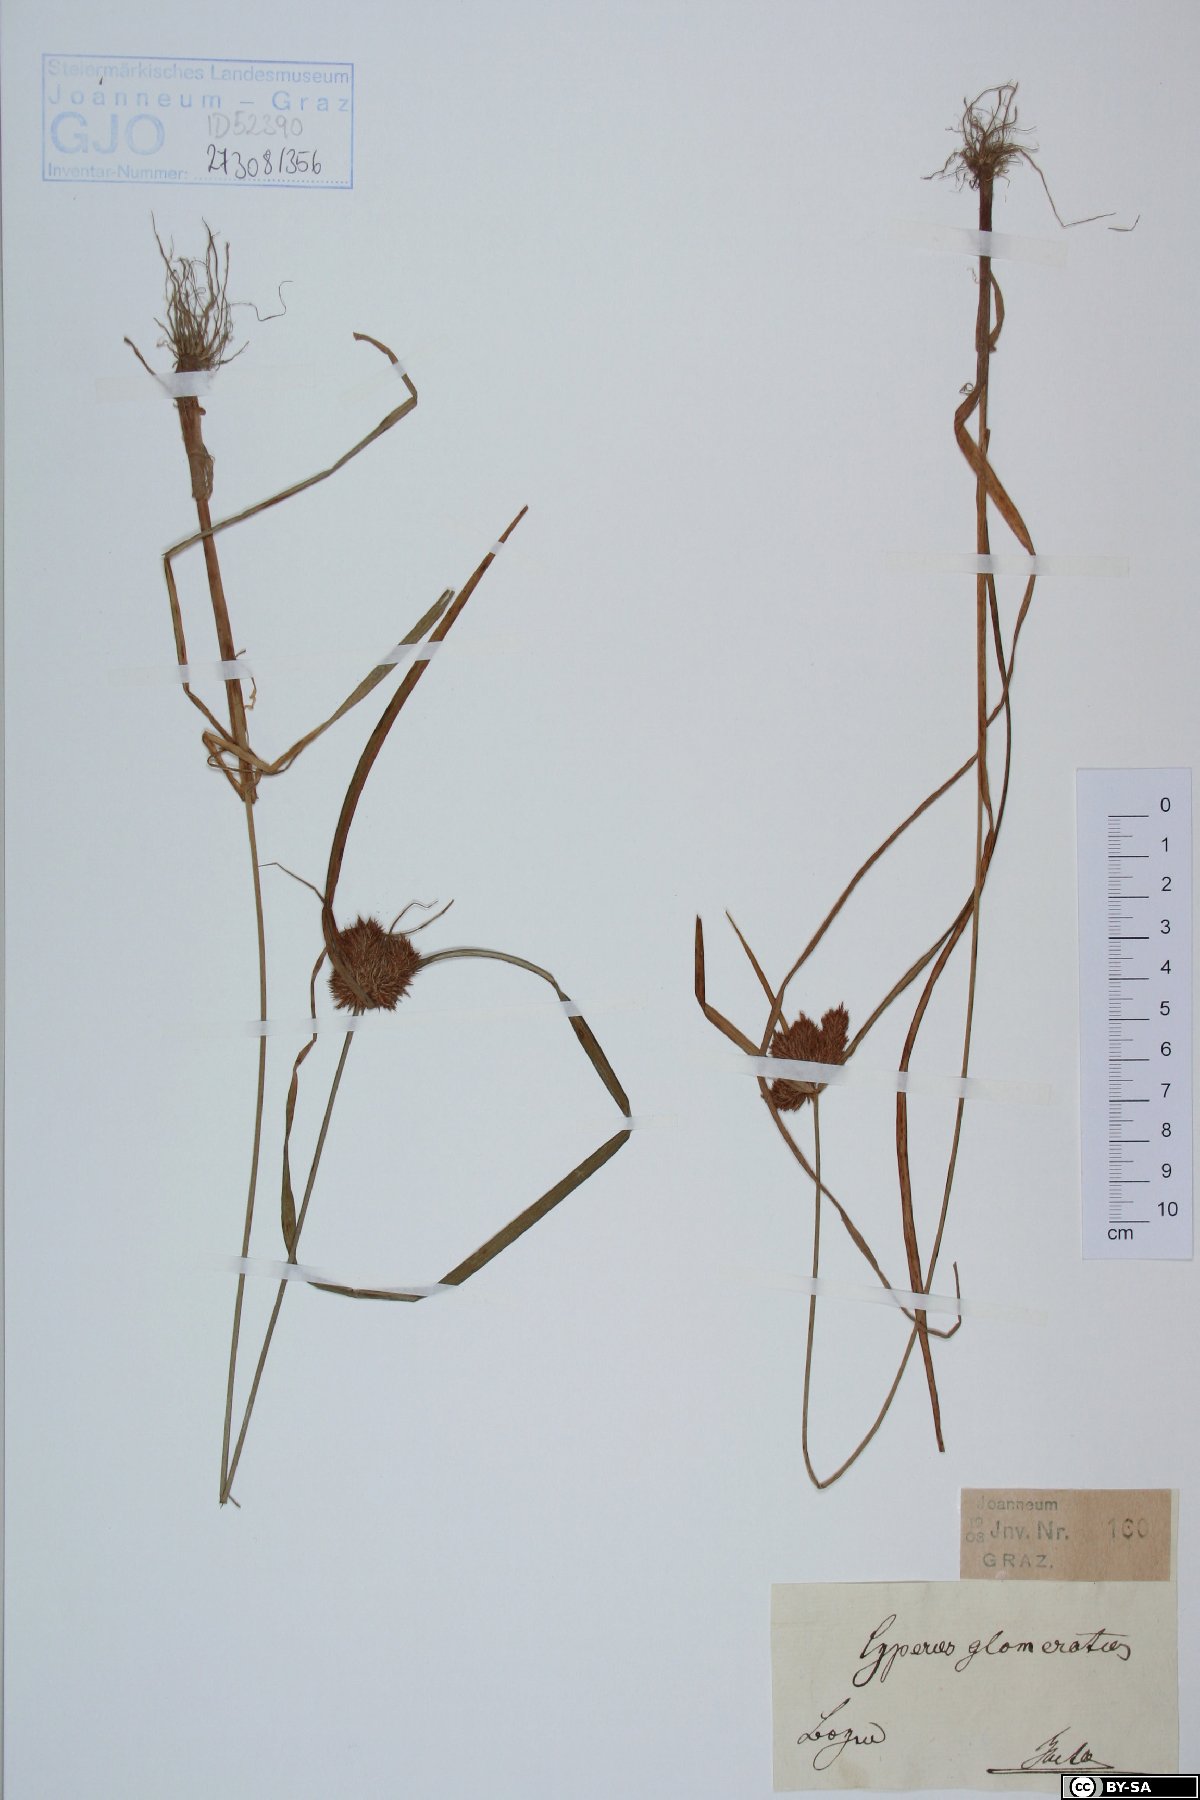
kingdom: Plantae
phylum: Tracheophyta
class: Liliopsida
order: Poales
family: Cyperaceae
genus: Cyperus
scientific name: Cyperus glomeratus
